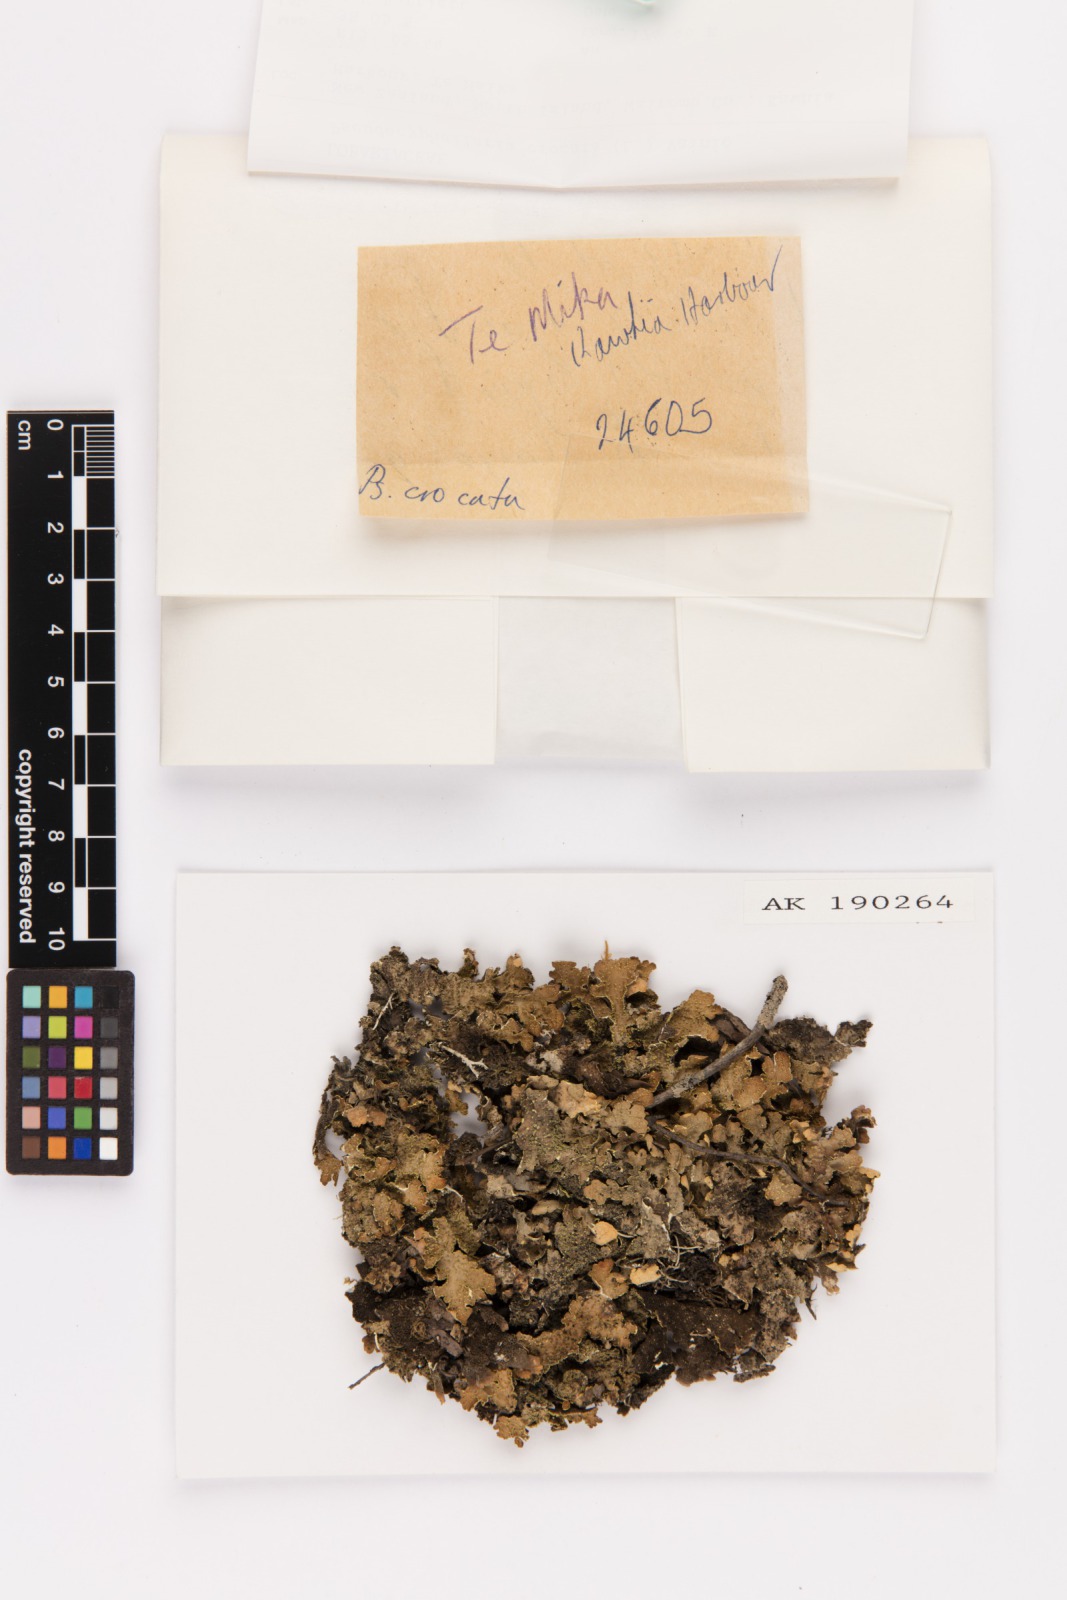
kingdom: Fungi
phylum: Ascomycota
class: Lecanoromycetes
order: Peltigerales
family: Lobariaceae
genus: Pseudocyphellaria
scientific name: Pseudocyphellaria crocata
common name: Golden specklebelly
